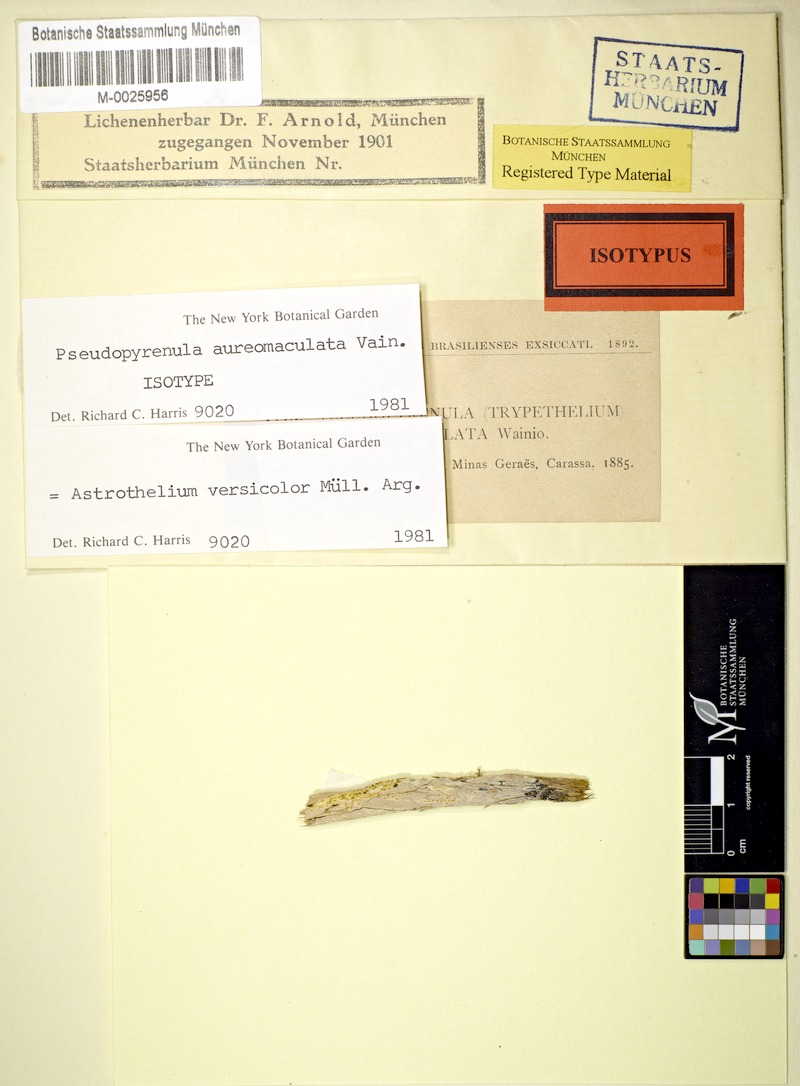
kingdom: Fungi
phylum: Ascomycota
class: Dothideomycetes
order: Trypetheliales
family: Trypetheliaceae
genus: Astrothelium
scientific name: Astrothelium versicolor
